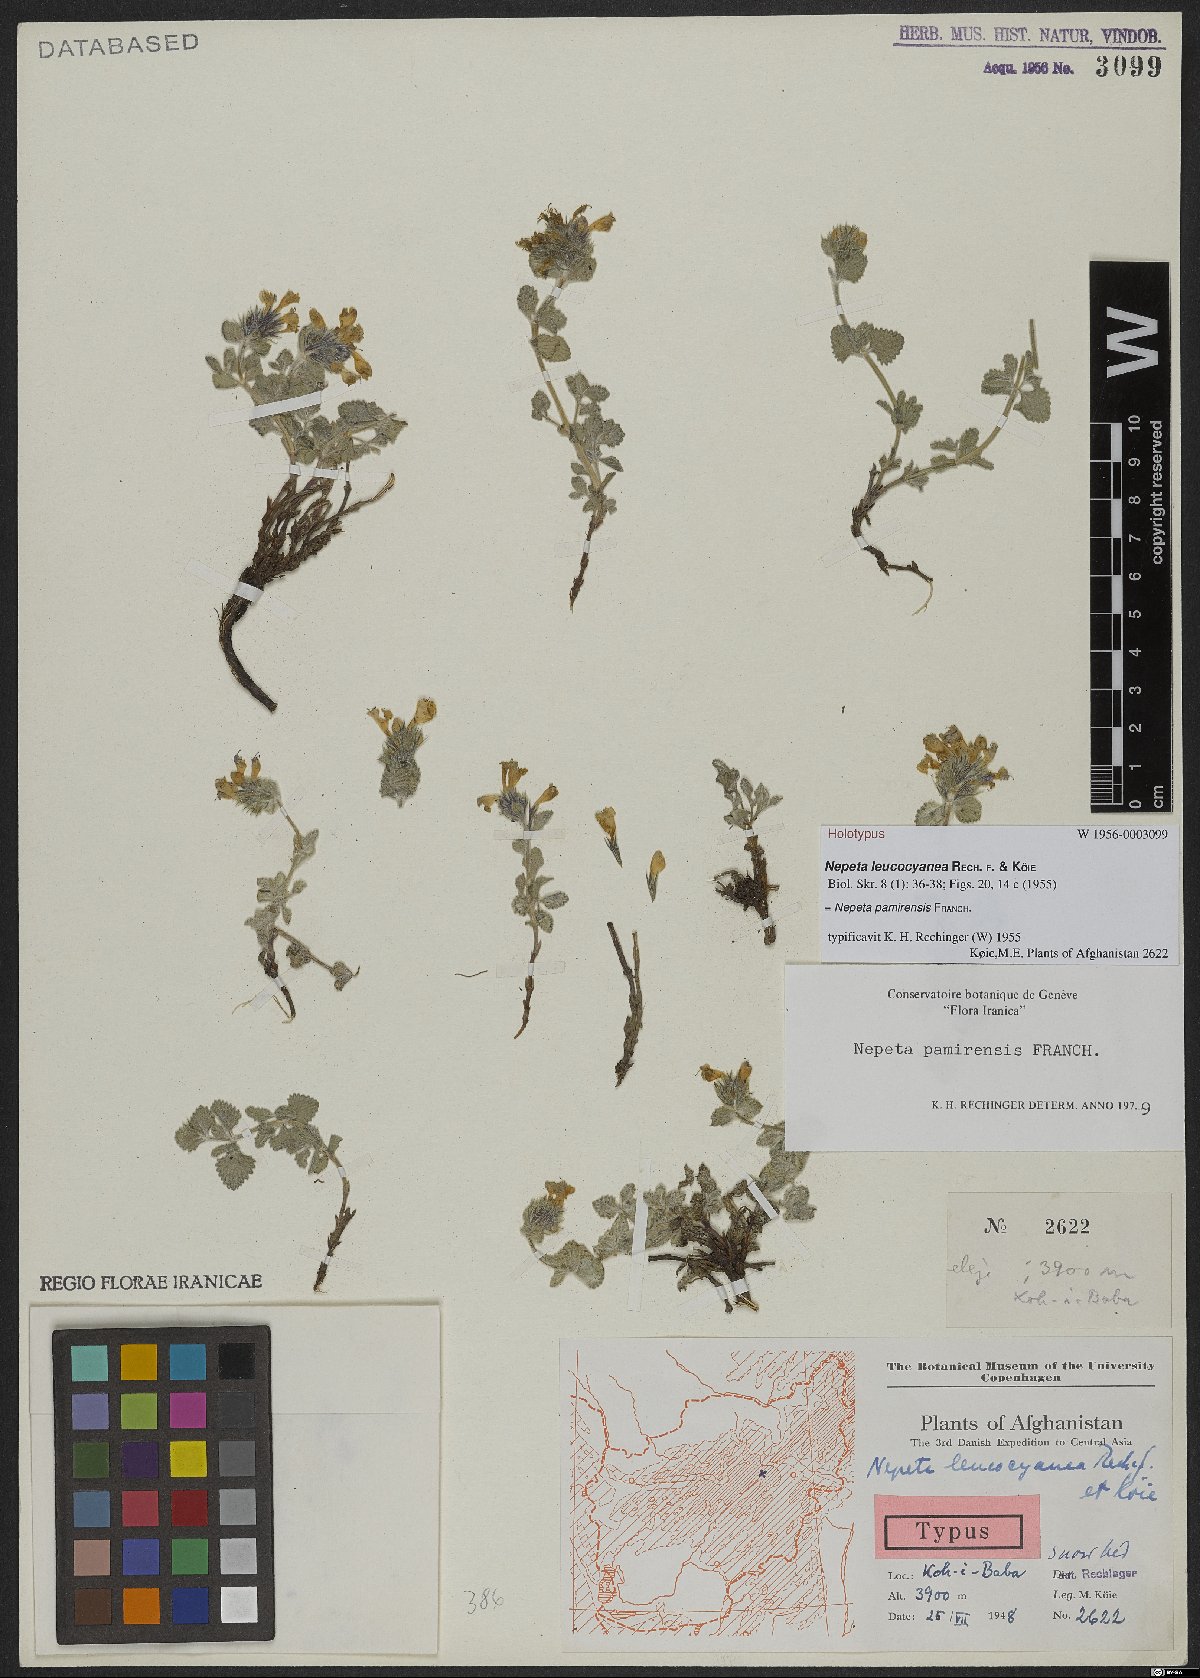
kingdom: Plantae
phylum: Tracheophyta
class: Magnoliopsida
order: Lamiales
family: Lamiaceae
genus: Nepeta
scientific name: Nepeta pamirensis
